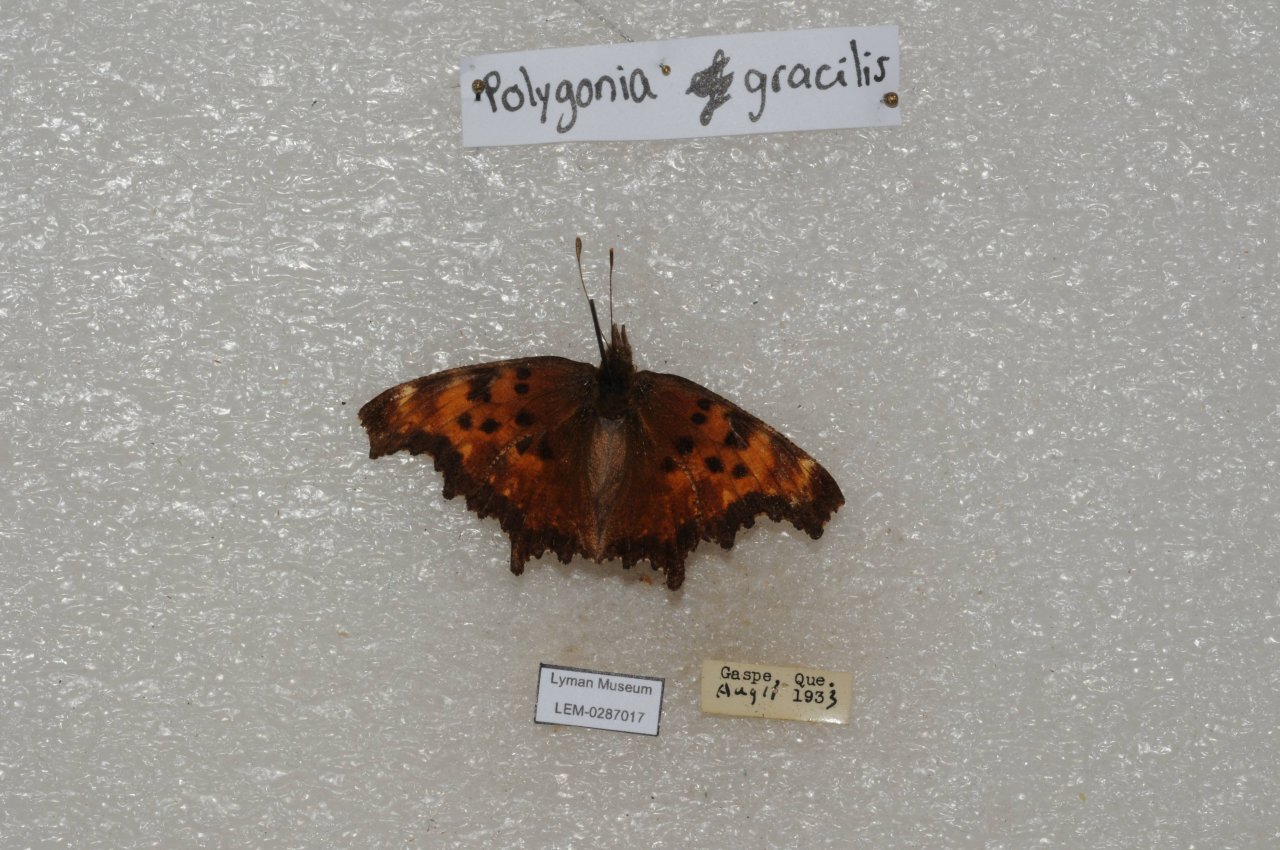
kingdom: Animalia
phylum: Arthropoda
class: Insecta
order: Lepidoptera
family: Nymphalidae
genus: Polygonia
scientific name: Polygonia gracilis
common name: Hoary Comma
